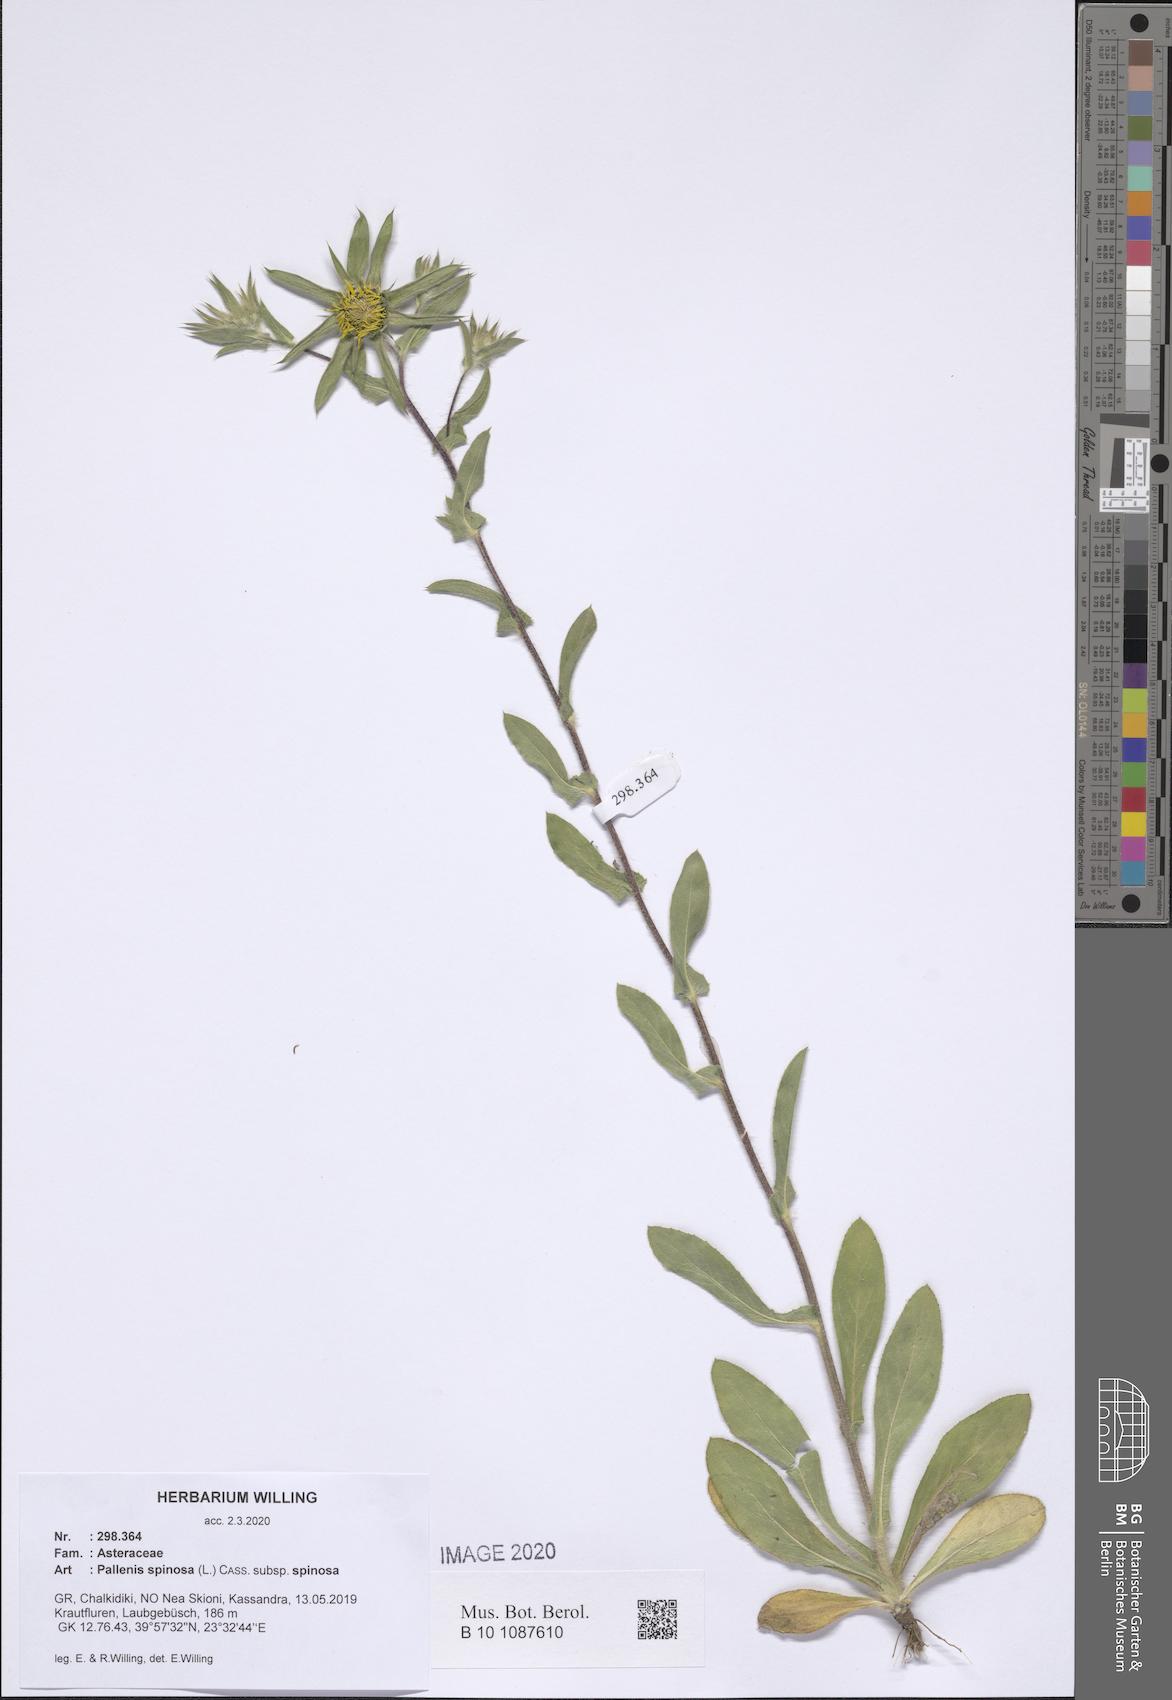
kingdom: Plantae
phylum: Tracheophyta
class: Magnoliopsida
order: Asterales
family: Asteraceae
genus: Pallenis
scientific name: Pallenis spinosa
